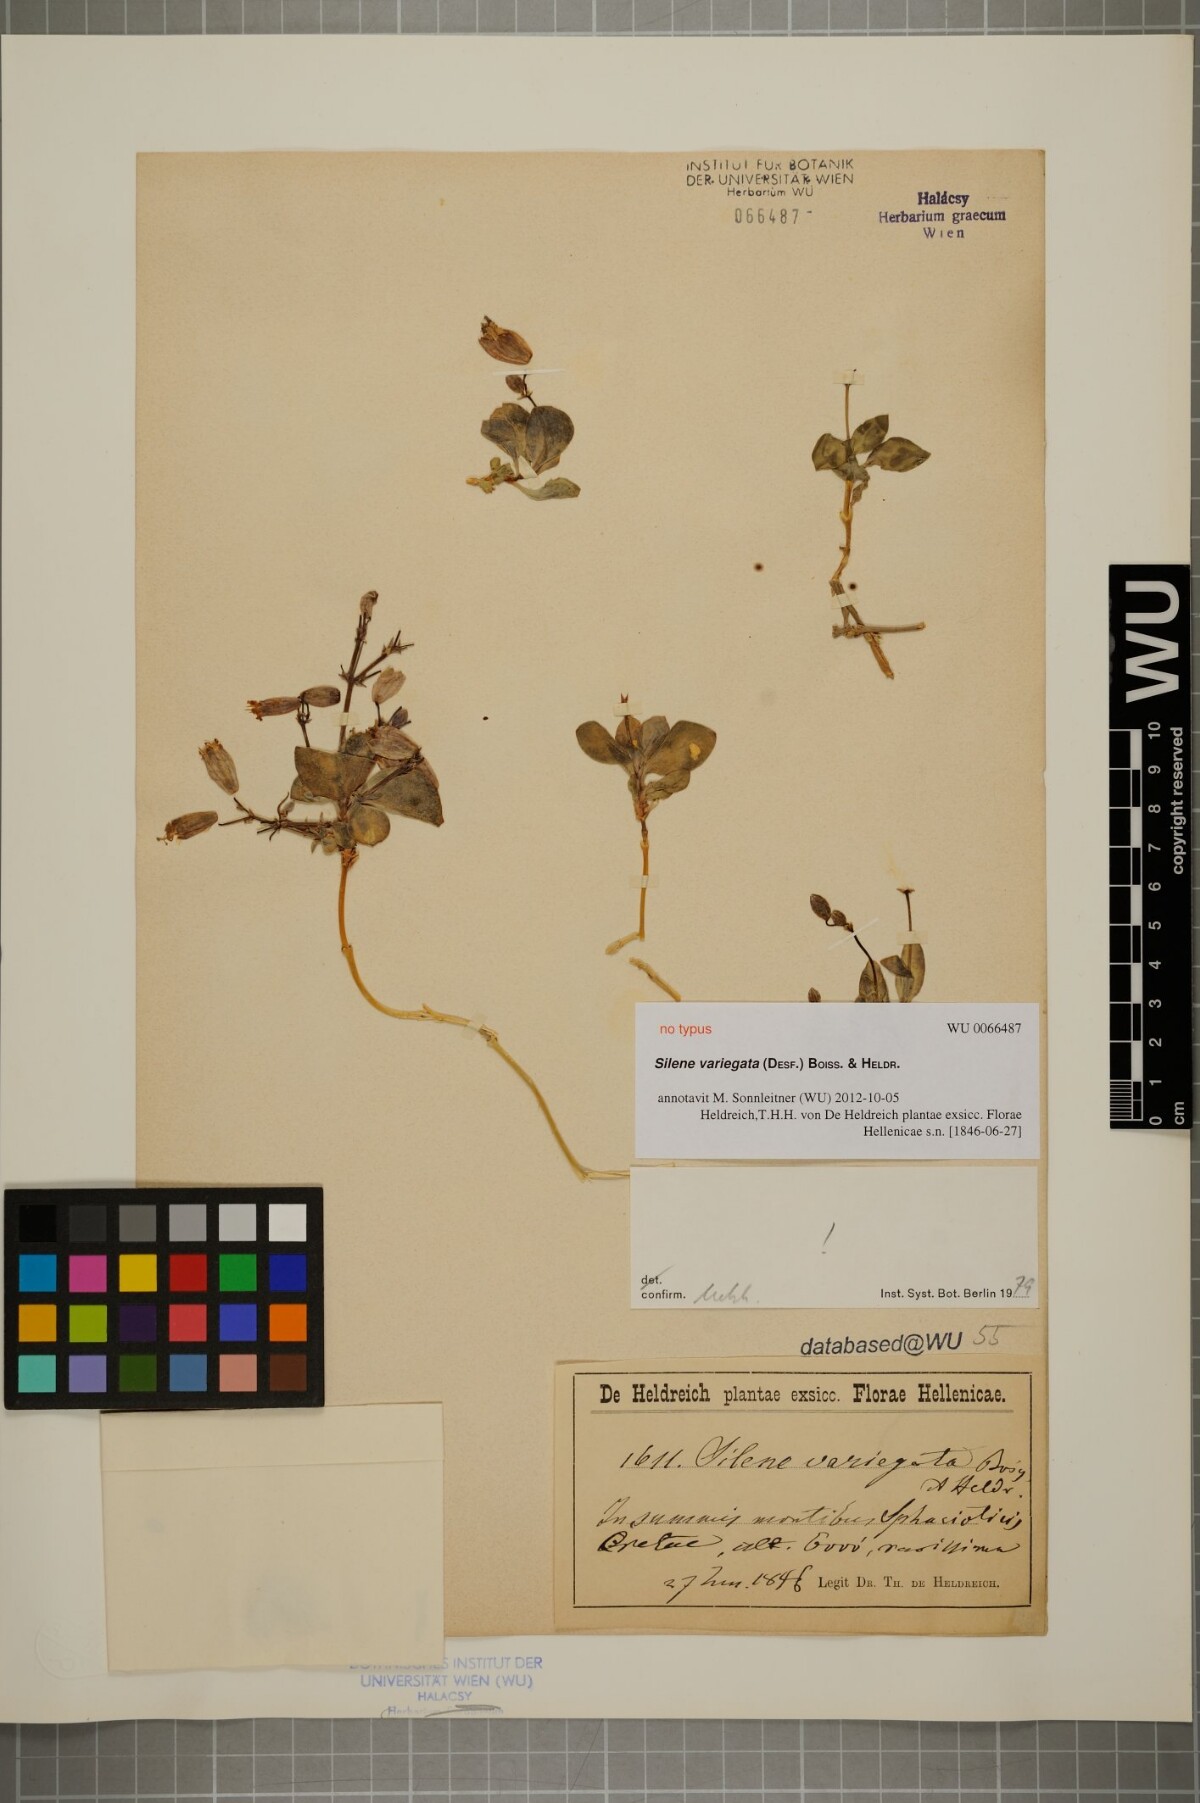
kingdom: Plantae
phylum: Tracheophyta
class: Magnoliopsida
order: Caryophyllales
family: Caryophyllaceae
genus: Silene
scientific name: Silene variegata
